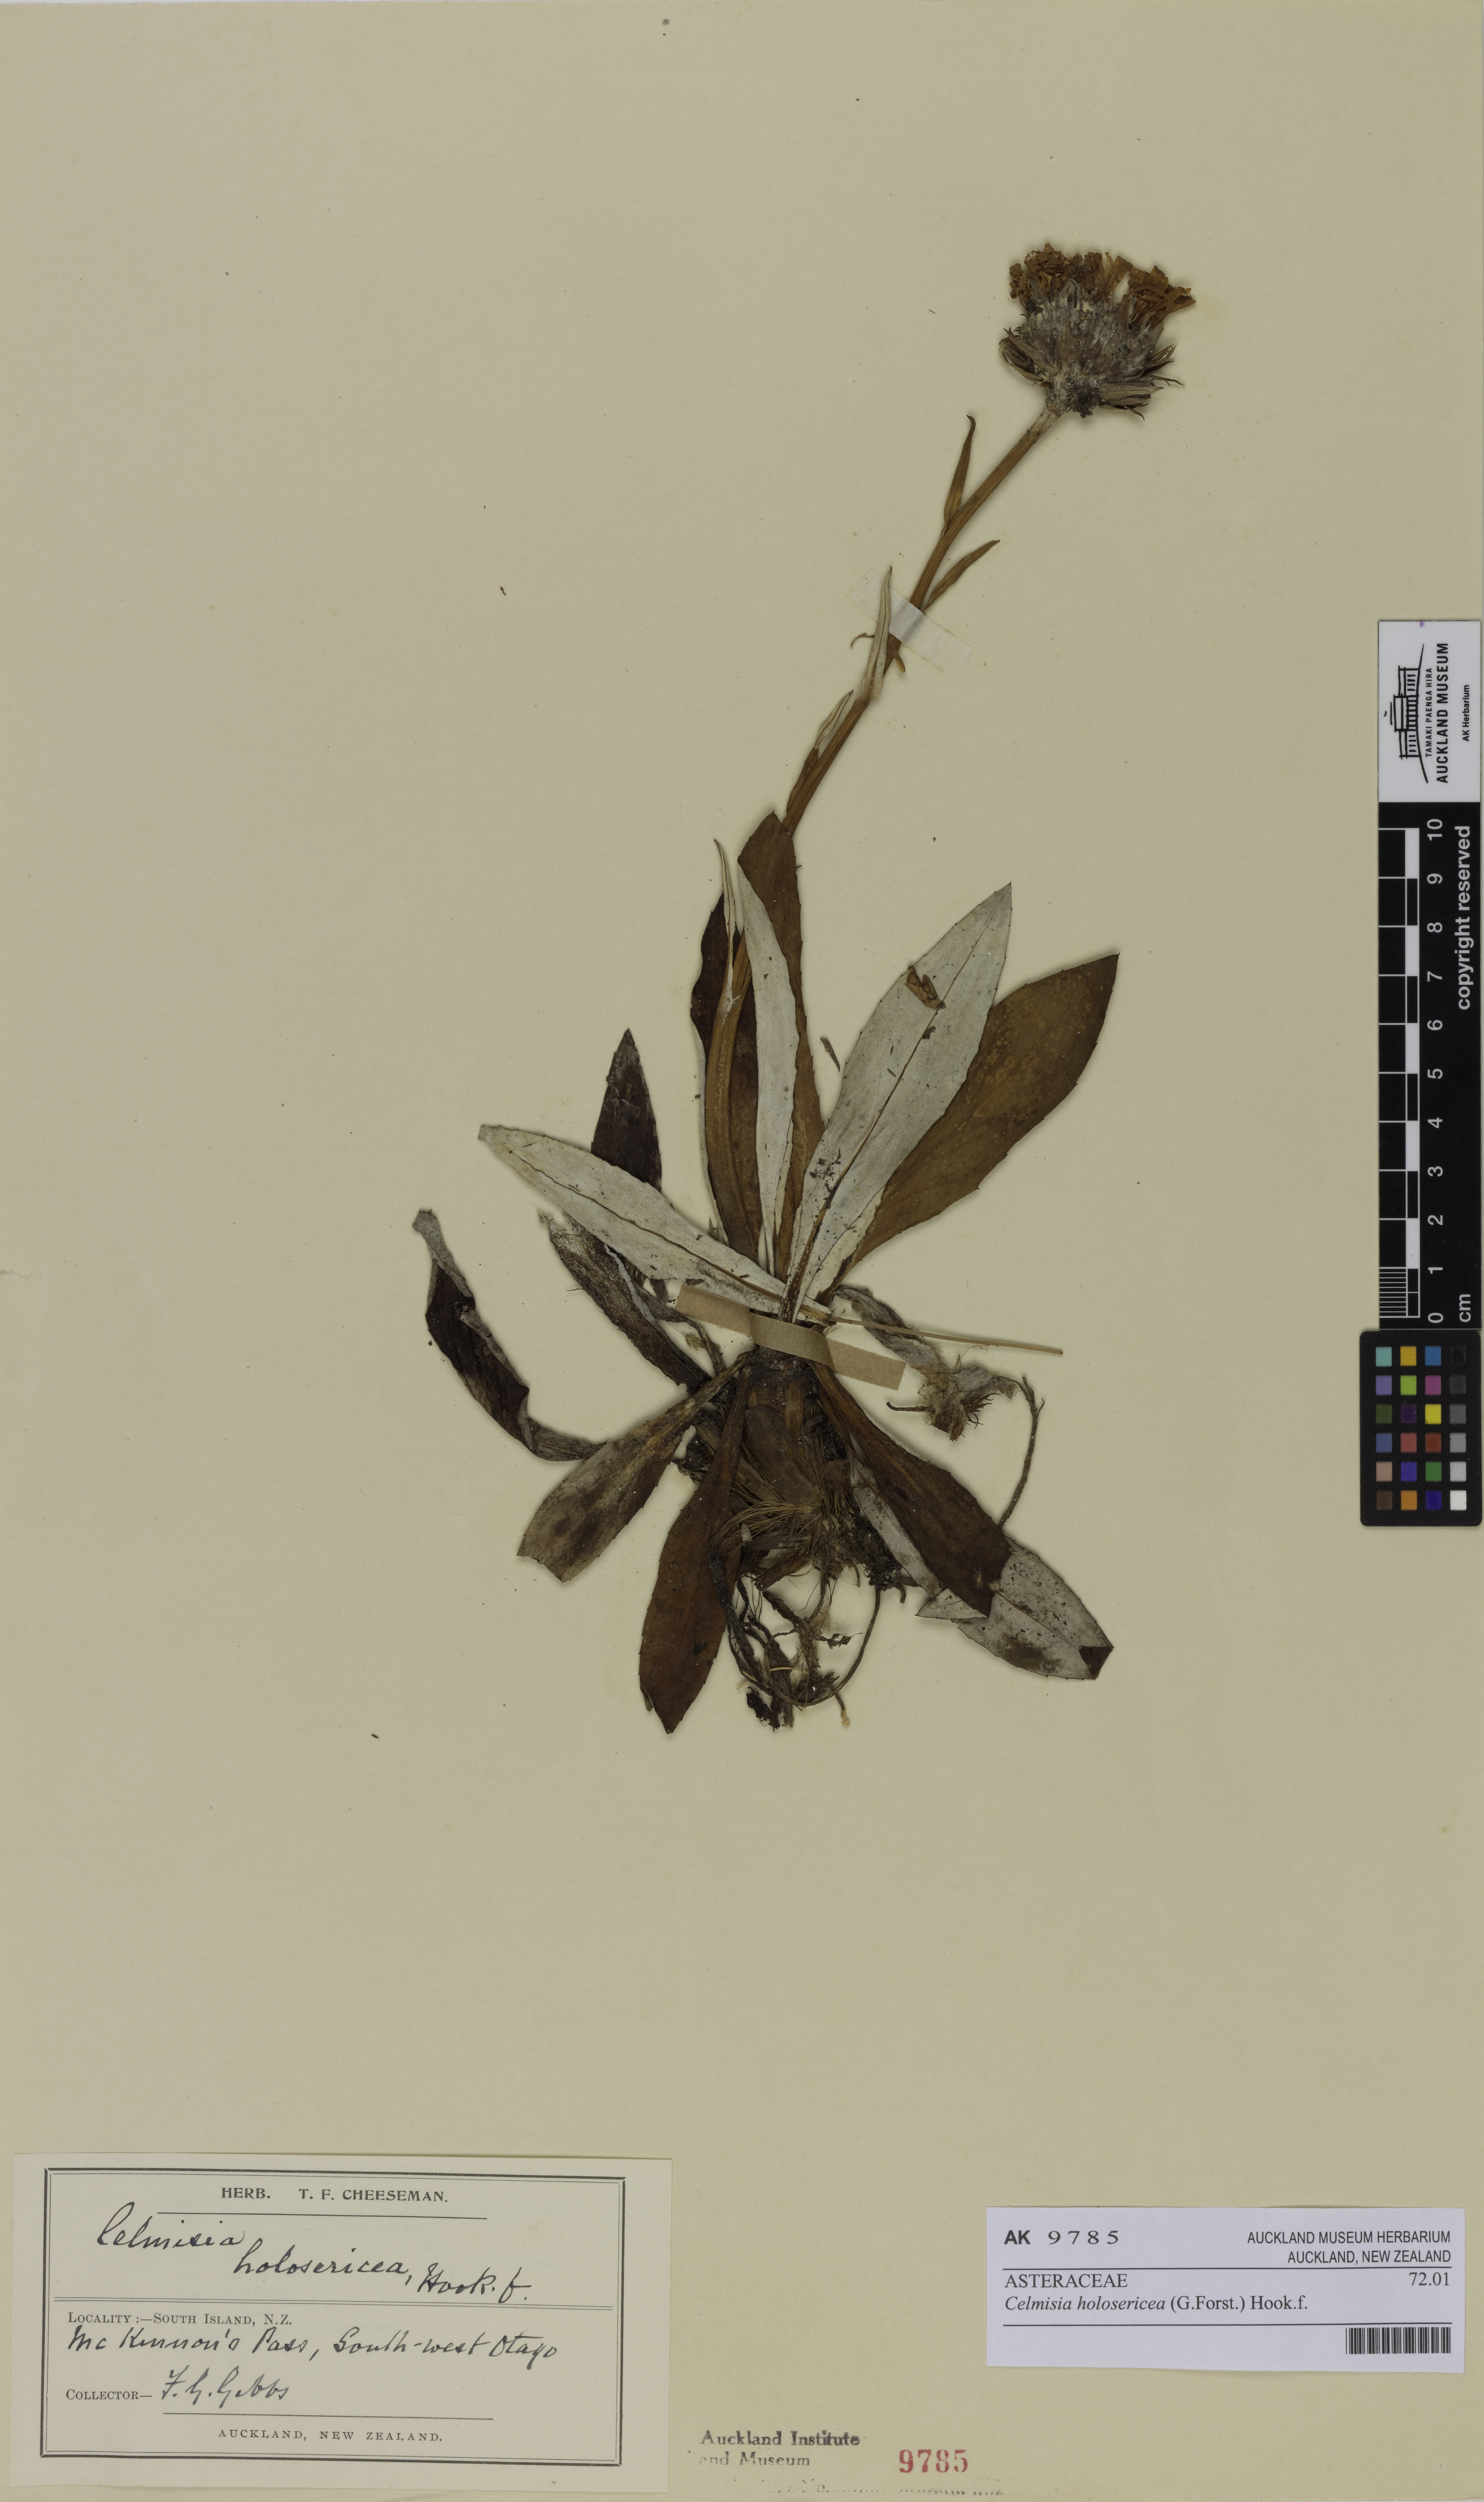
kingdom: Plantae
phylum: Tracheophyta
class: Magnoliopsida
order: Asterales
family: Asteraceae
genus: Celmisia
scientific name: Celmisia holosericea
